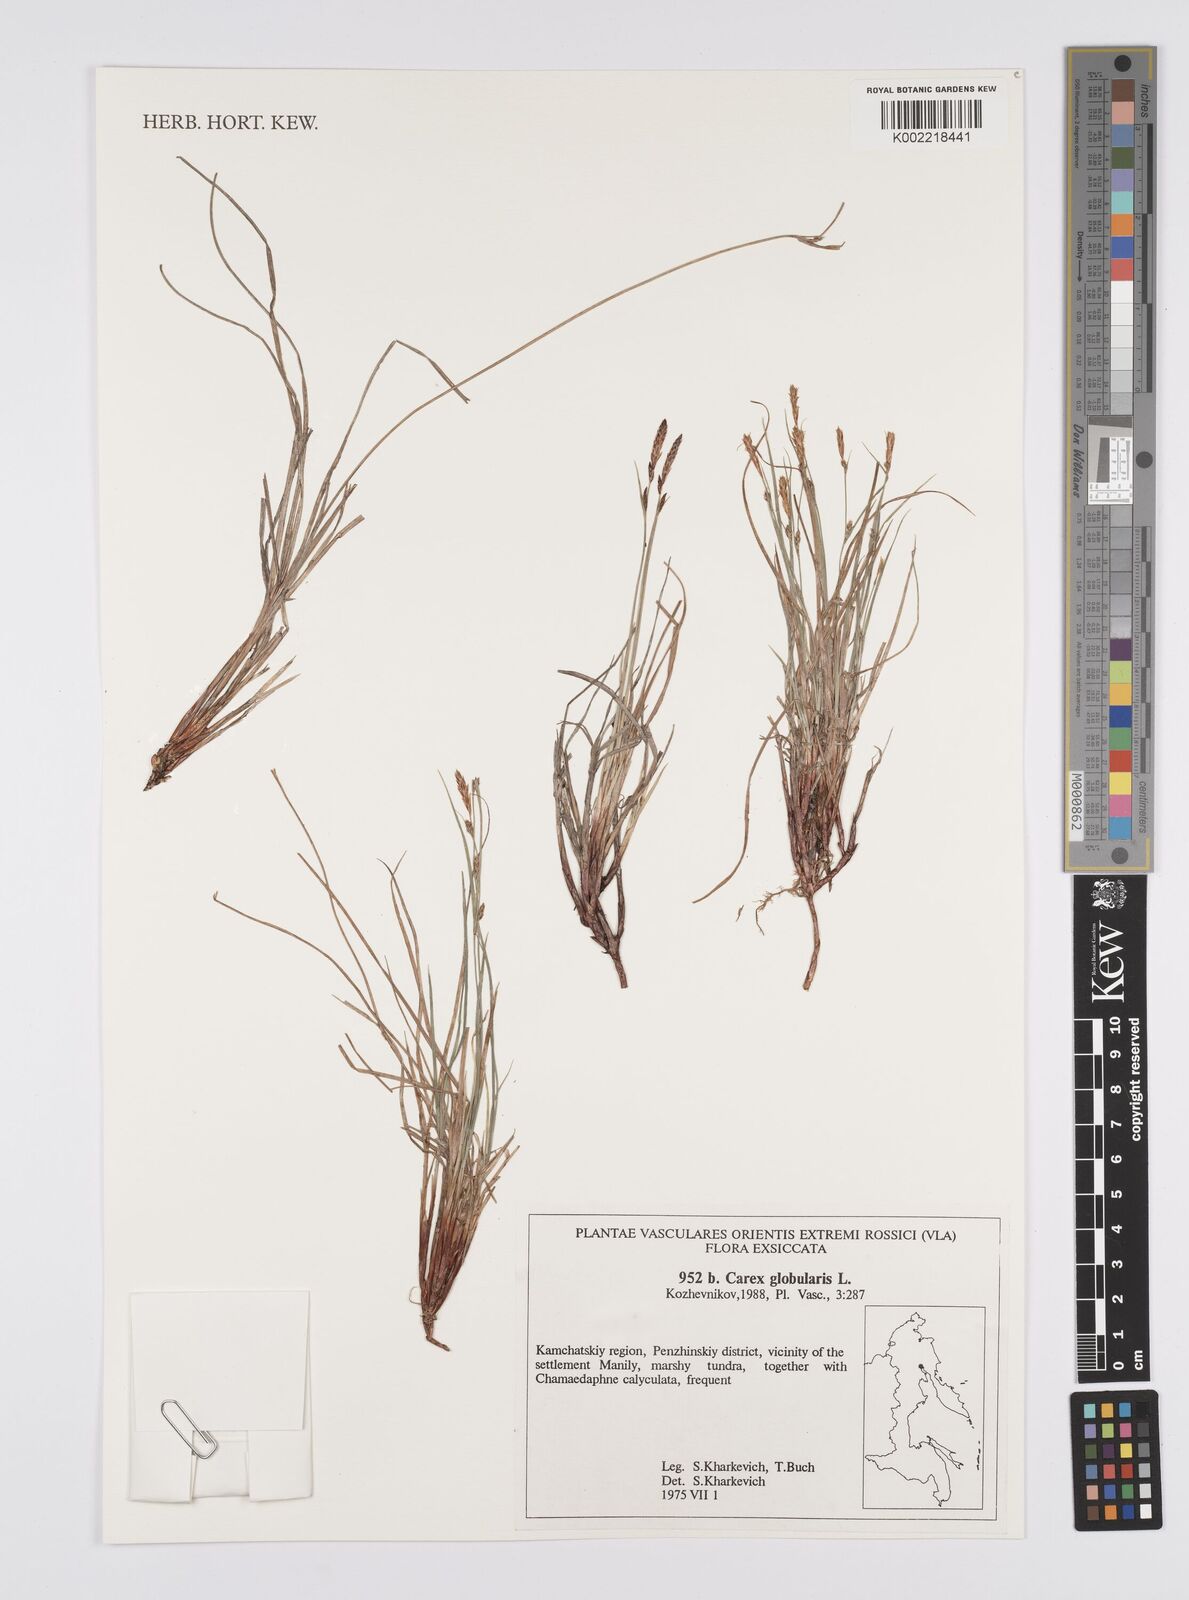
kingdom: Plantae
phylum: Tracheophyta
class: Liliopsida
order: Poales
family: Cyperaceae
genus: Carex
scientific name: Carex globularis
